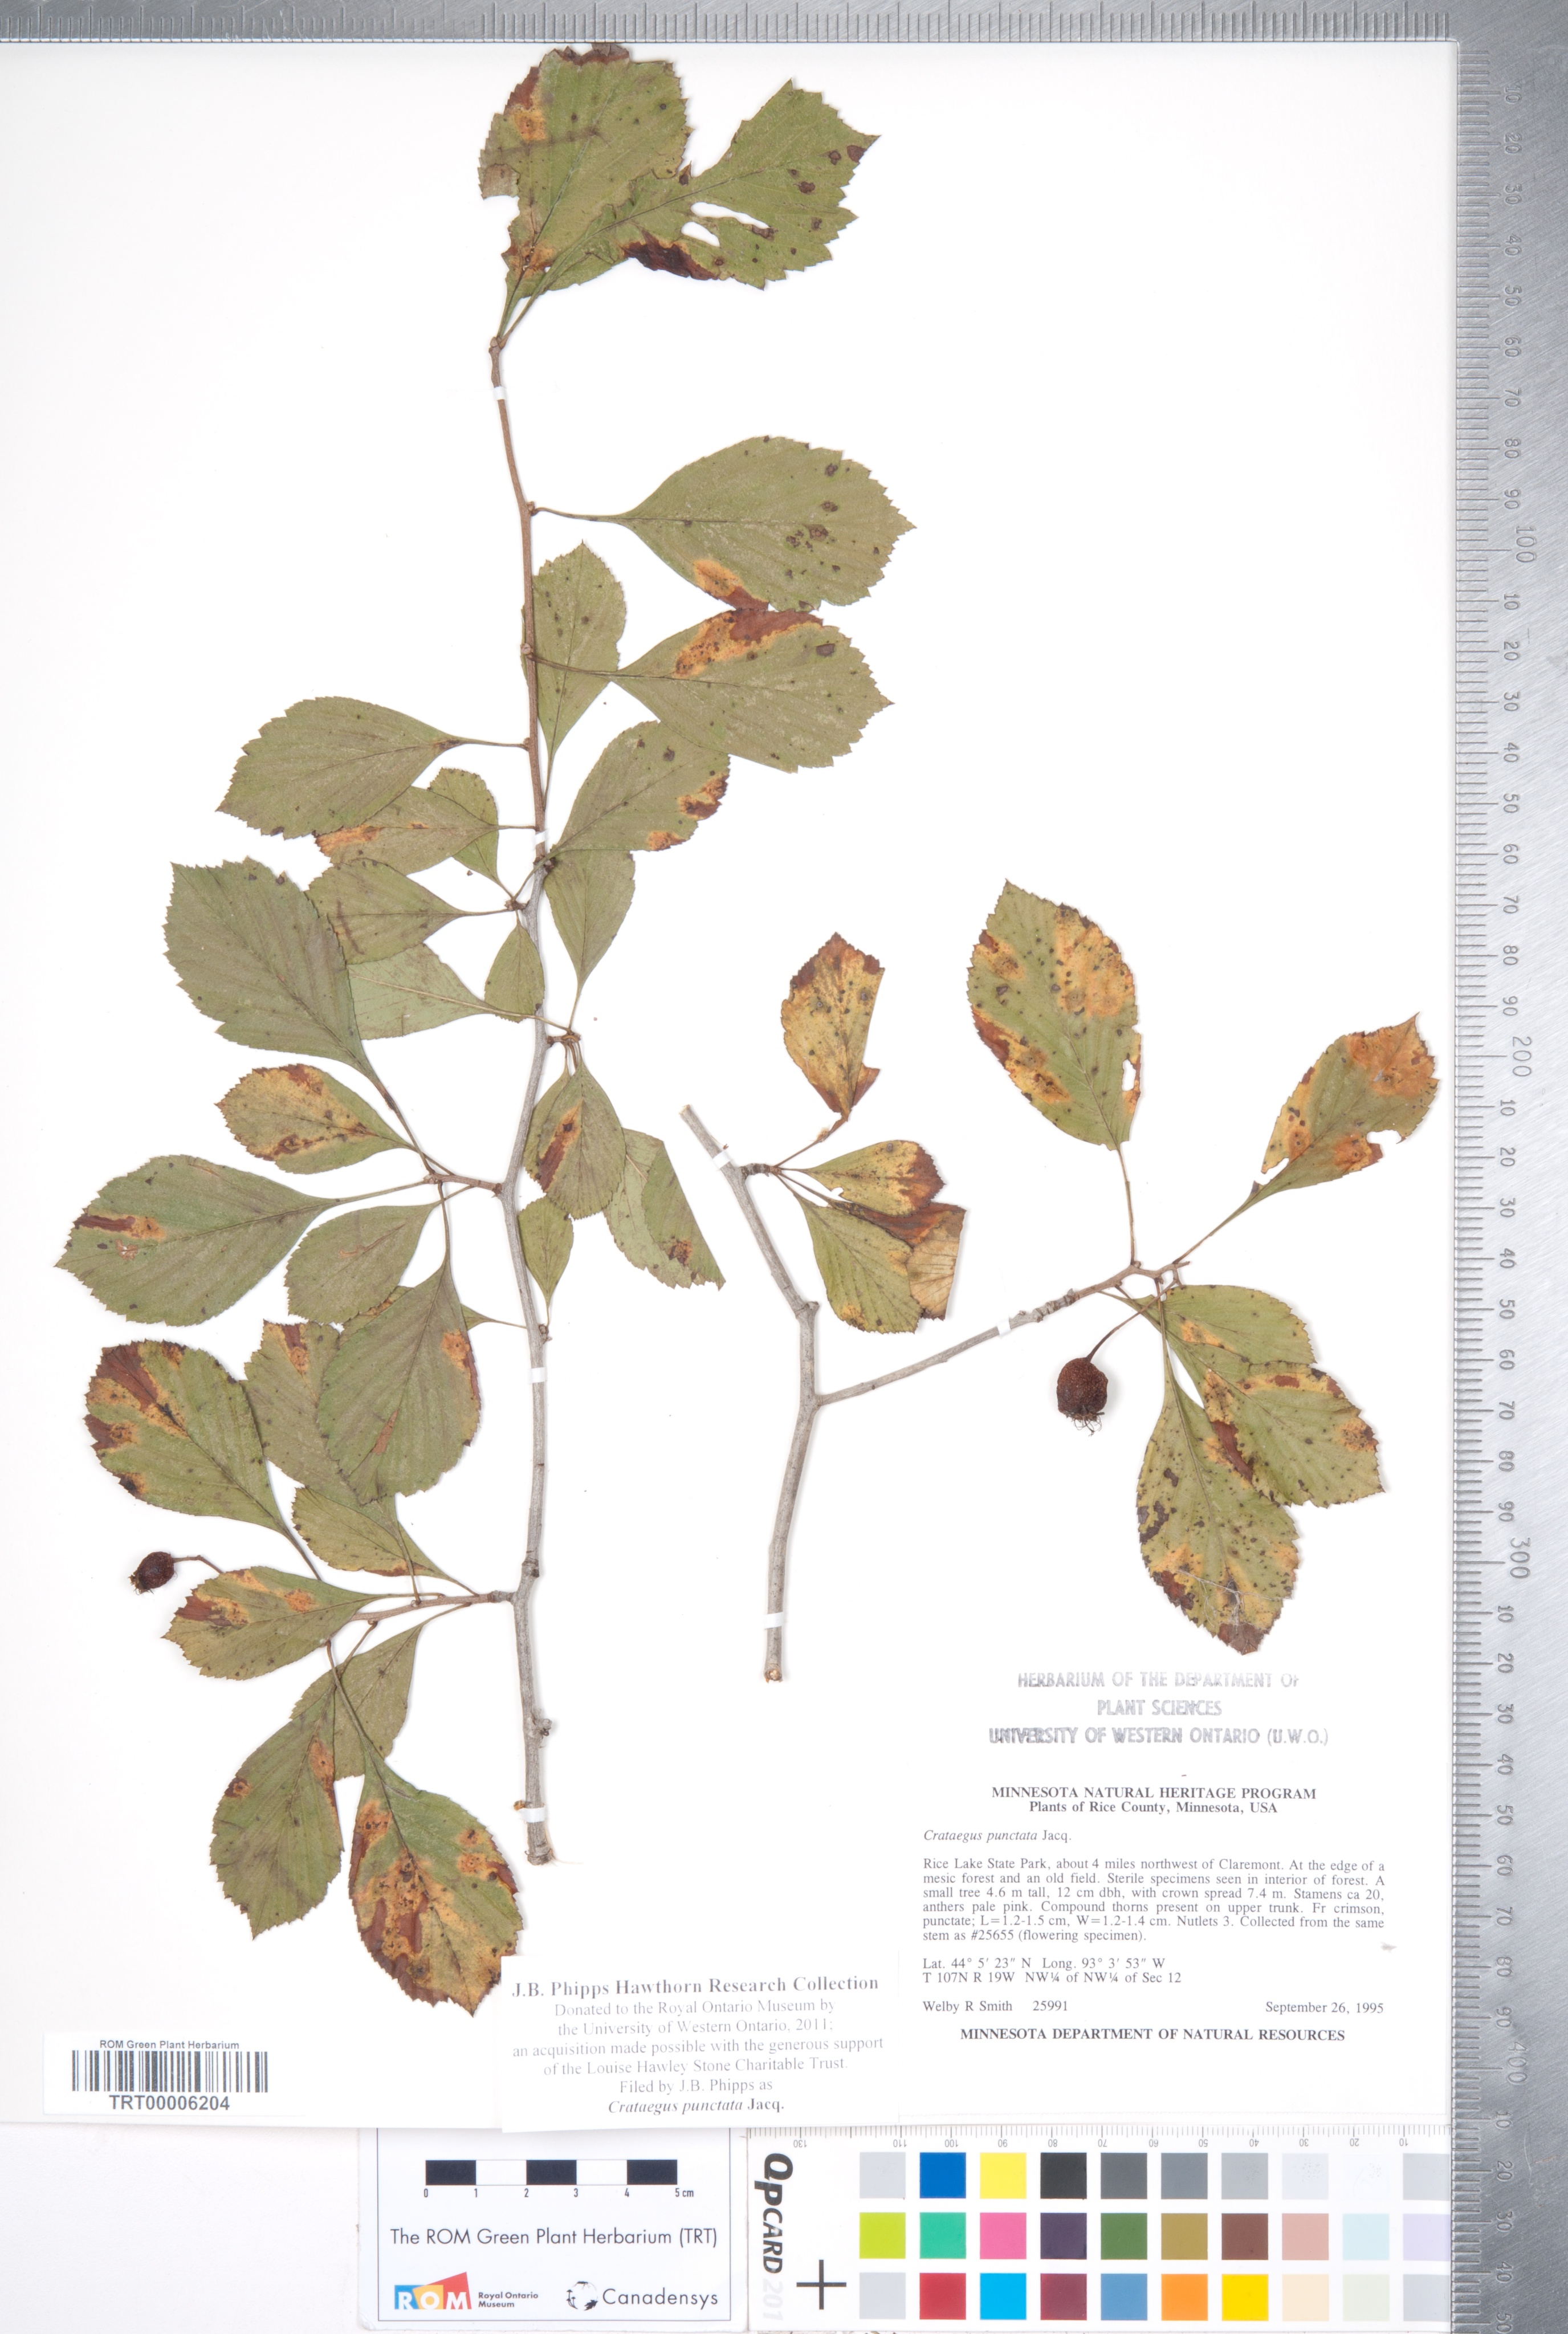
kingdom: Plantae
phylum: Tracheophyta
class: Magnoliopsida
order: Rosales
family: Rosaceae
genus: Crataegus
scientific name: Crataegus punctata
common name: Dotted hawthorn
